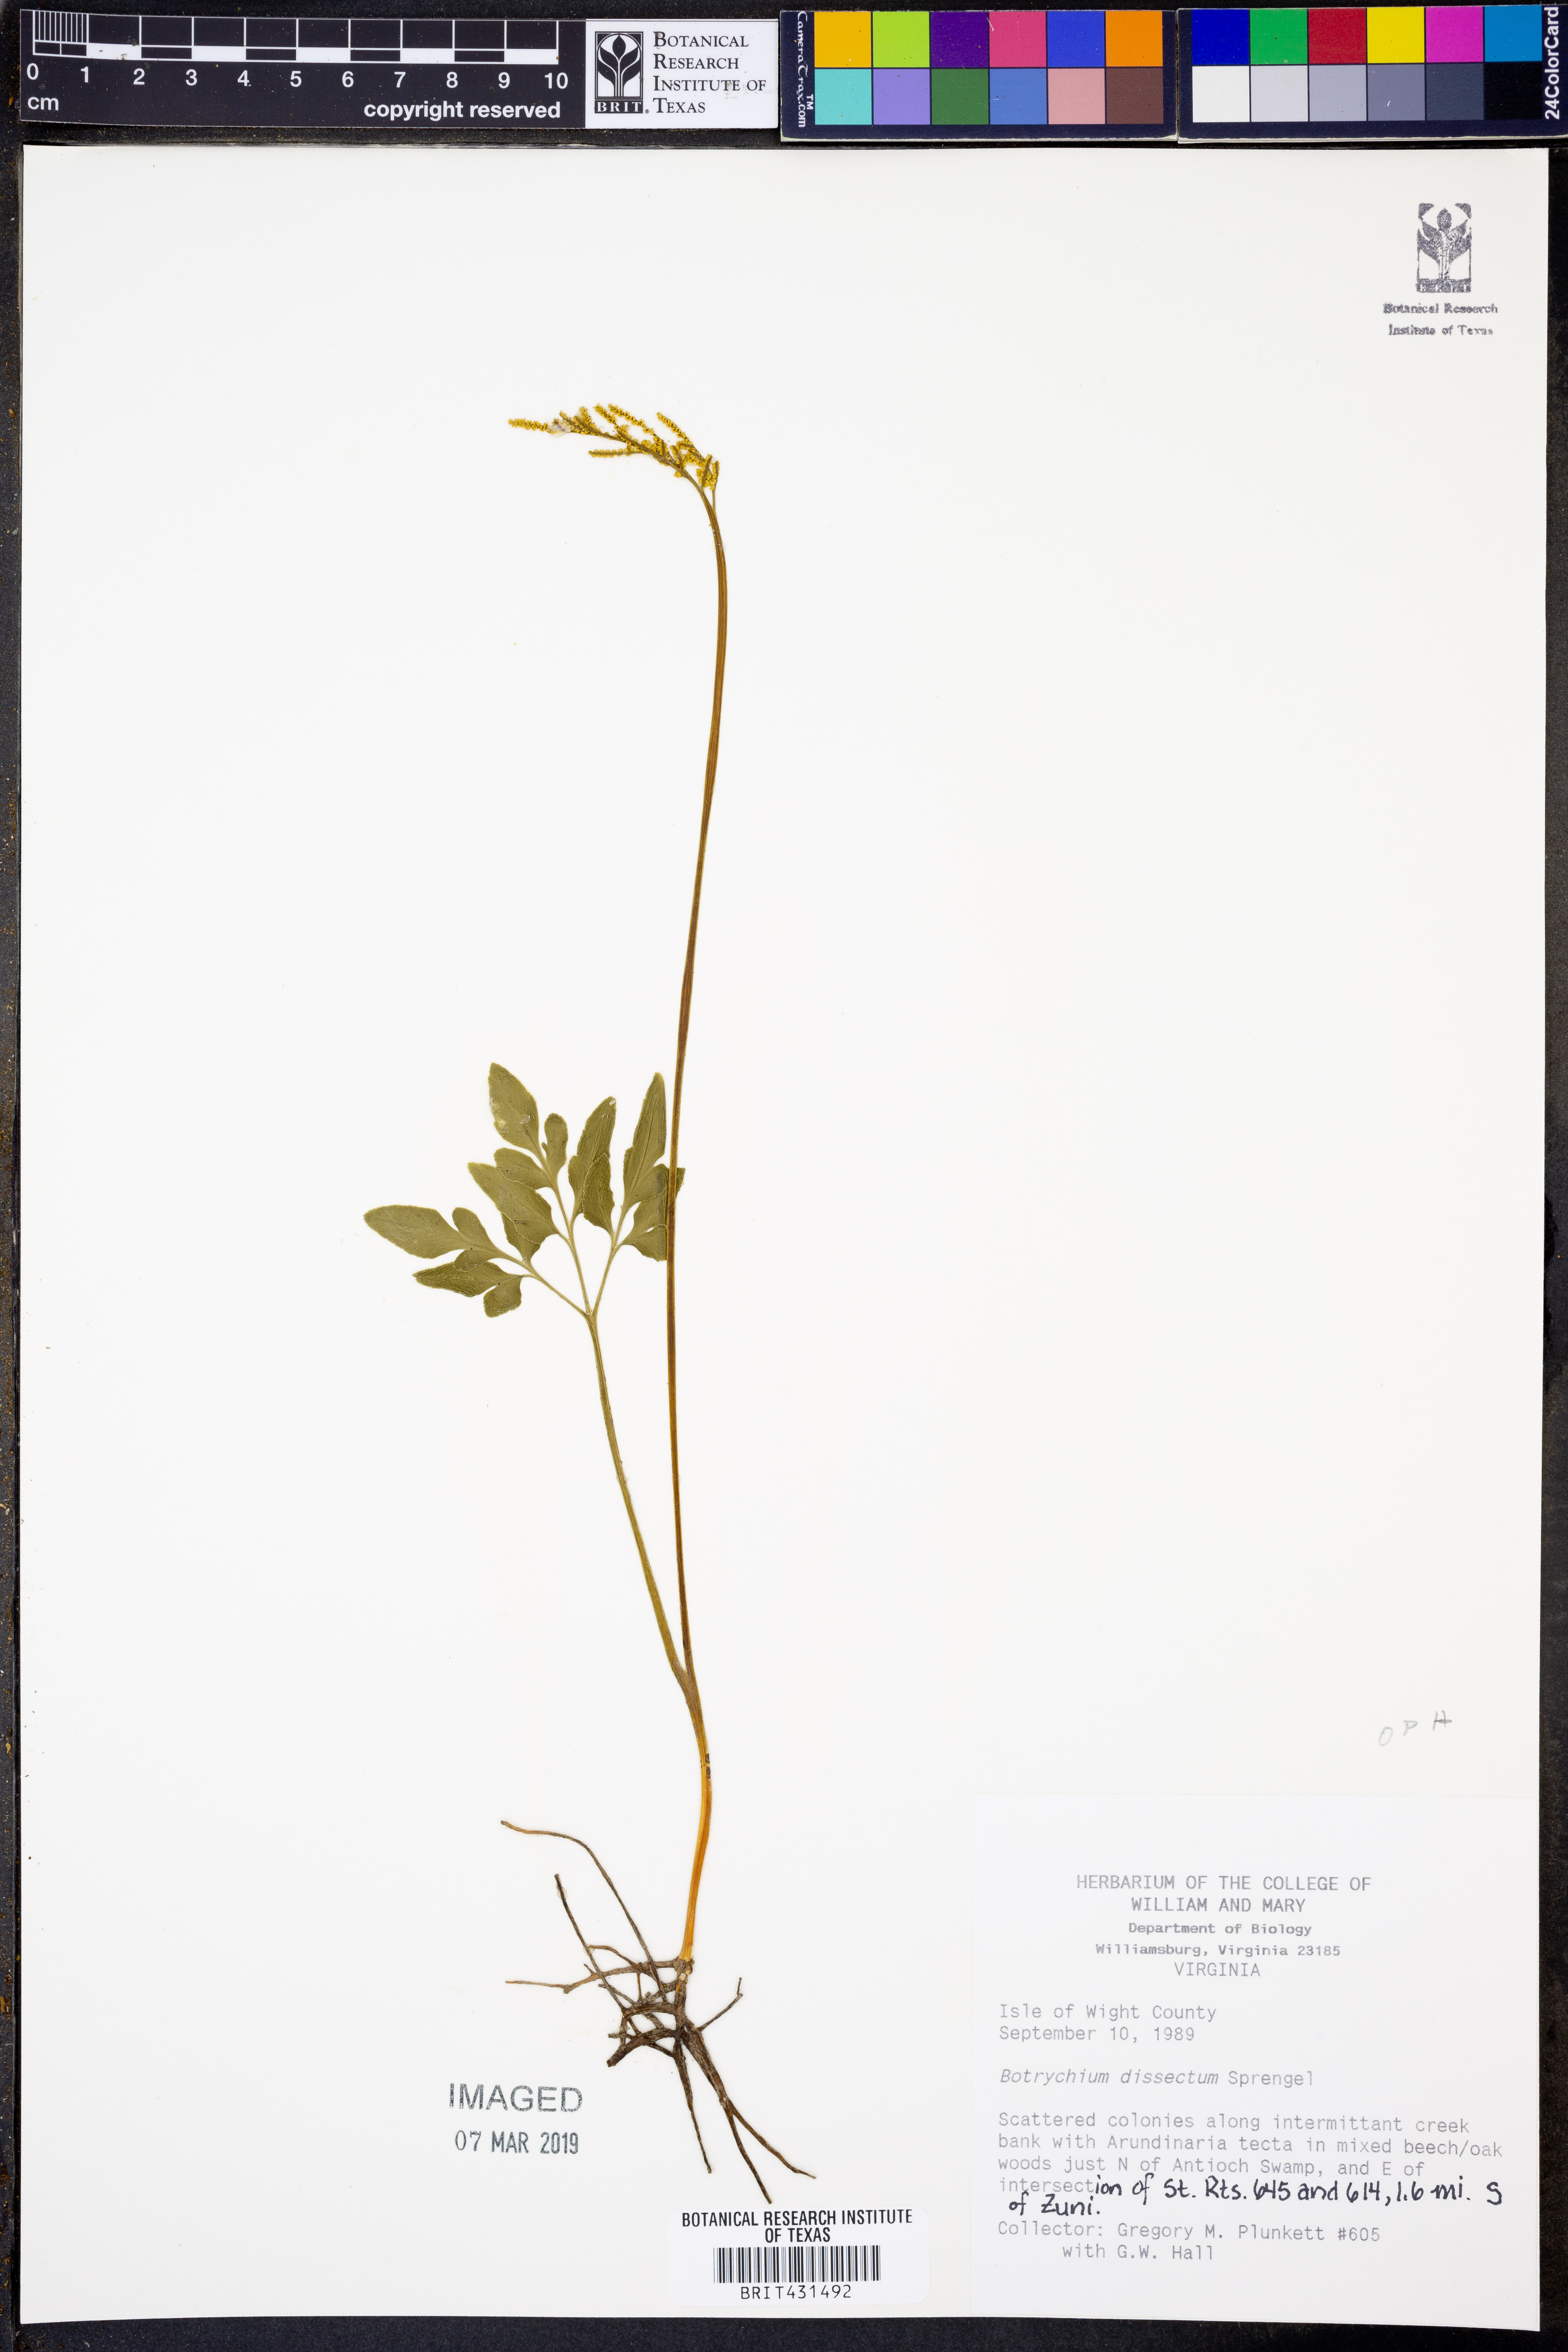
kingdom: Plantae
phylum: Tracheophyta
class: Polypodiopsida
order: Ophioglossales
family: Ophioglossaceae
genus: Sceptridium
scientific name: Sceptridium dissectum
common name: Cut-leaved grapefern
